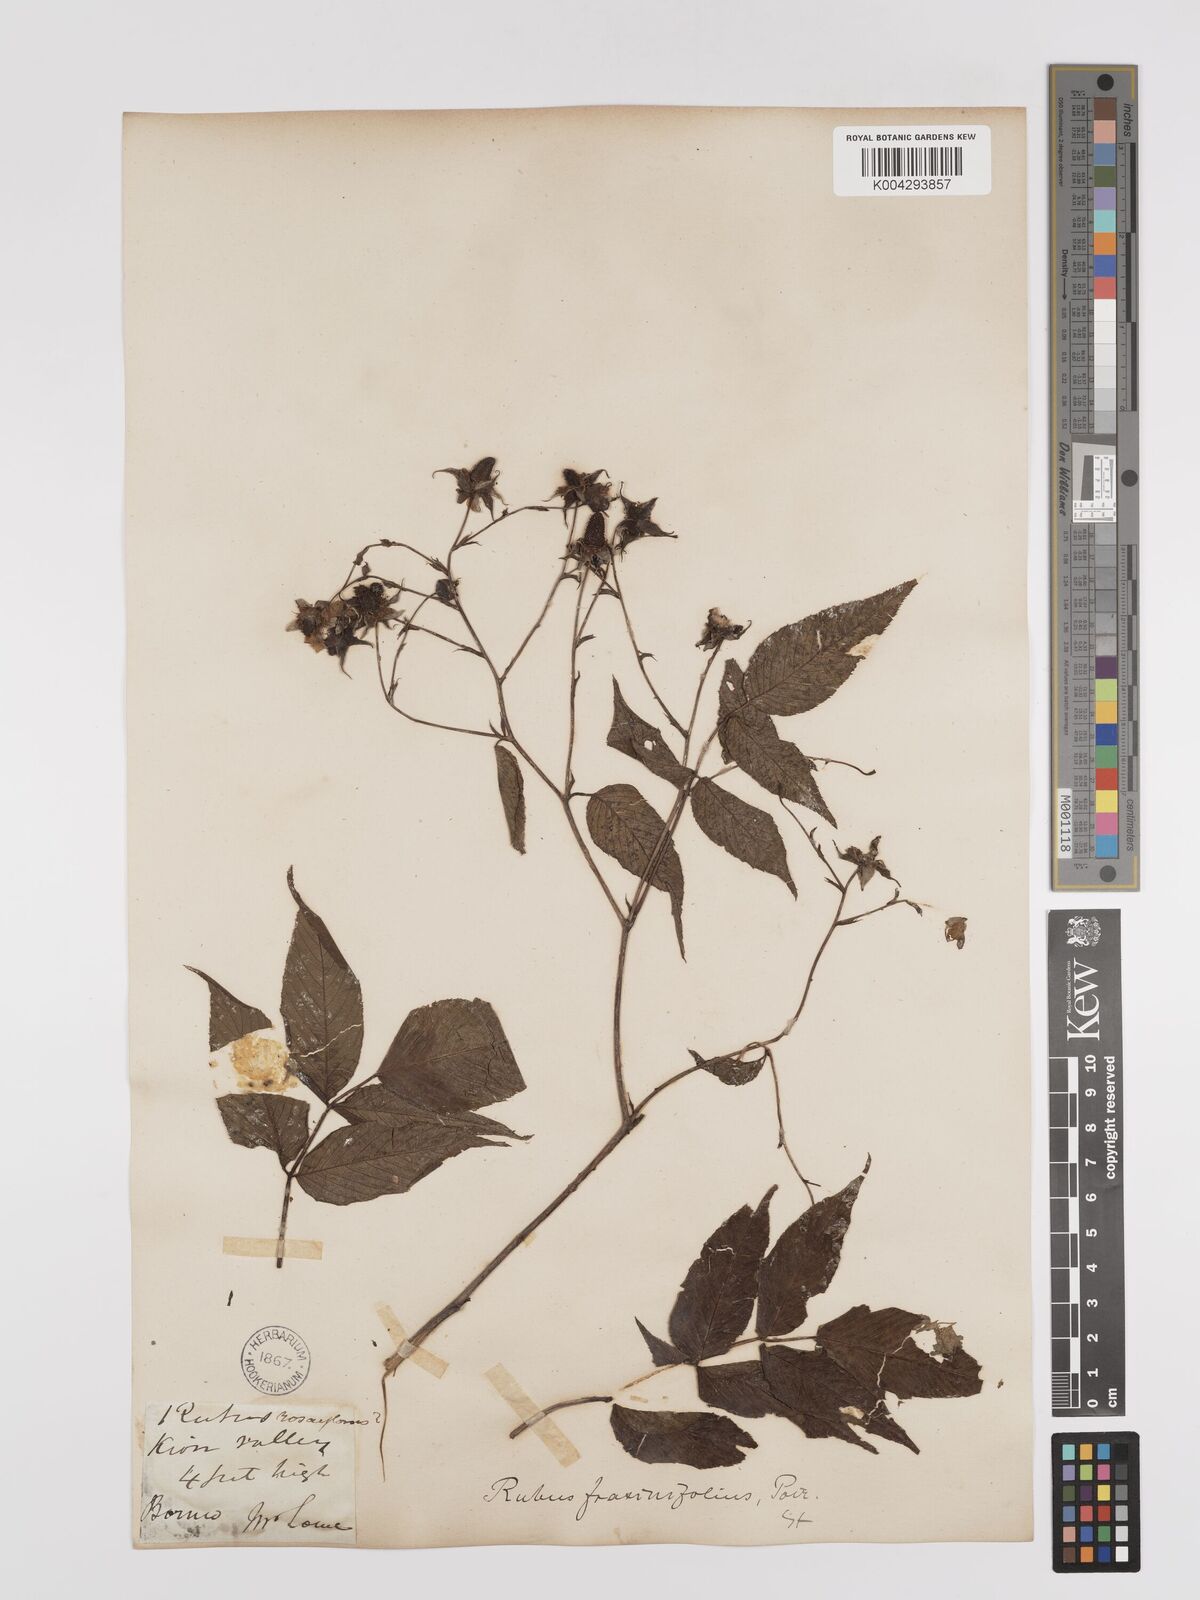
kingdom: Plantae
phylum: Tracheophyta
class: Magnoliopsida
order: Rosales
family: Rosaceae
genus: Rubus
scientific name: Rubus fraxinifolius
